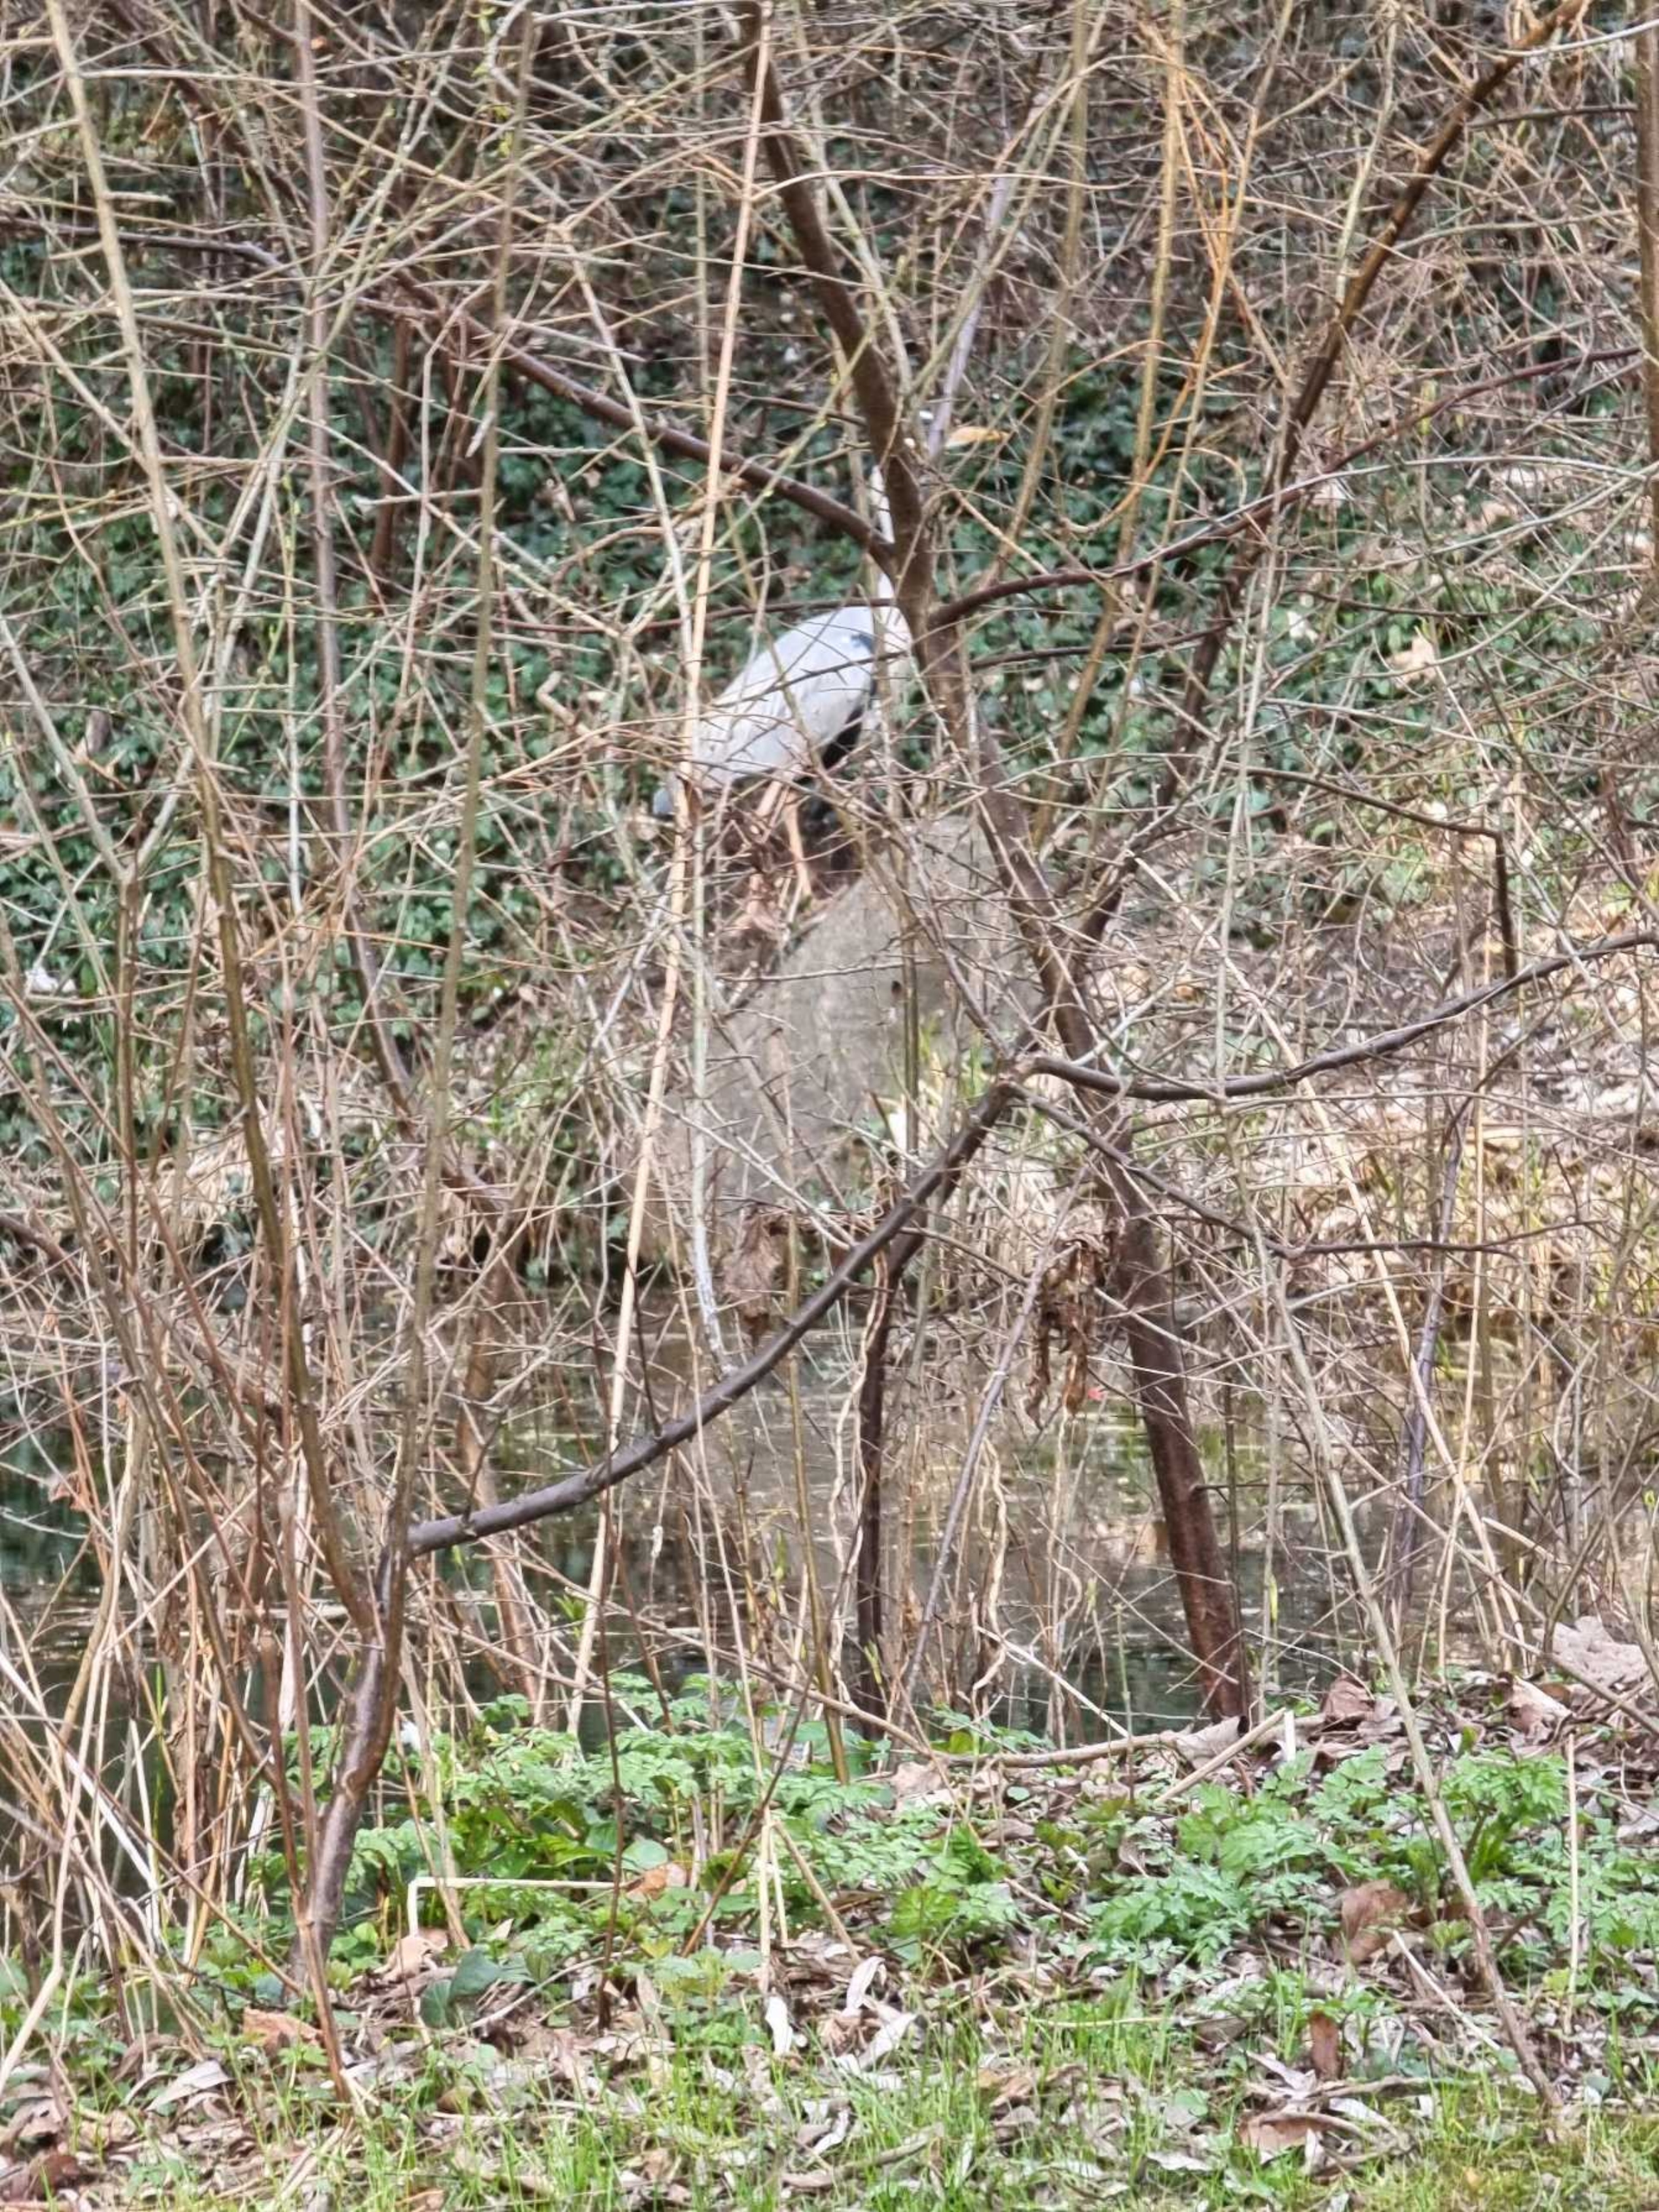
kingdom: Animalia
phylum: Chordata
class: Aves
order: Pelecaniformes
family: Ardeidae
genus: Ardea
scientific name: Ardea cinerea
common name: Fiskehejre
